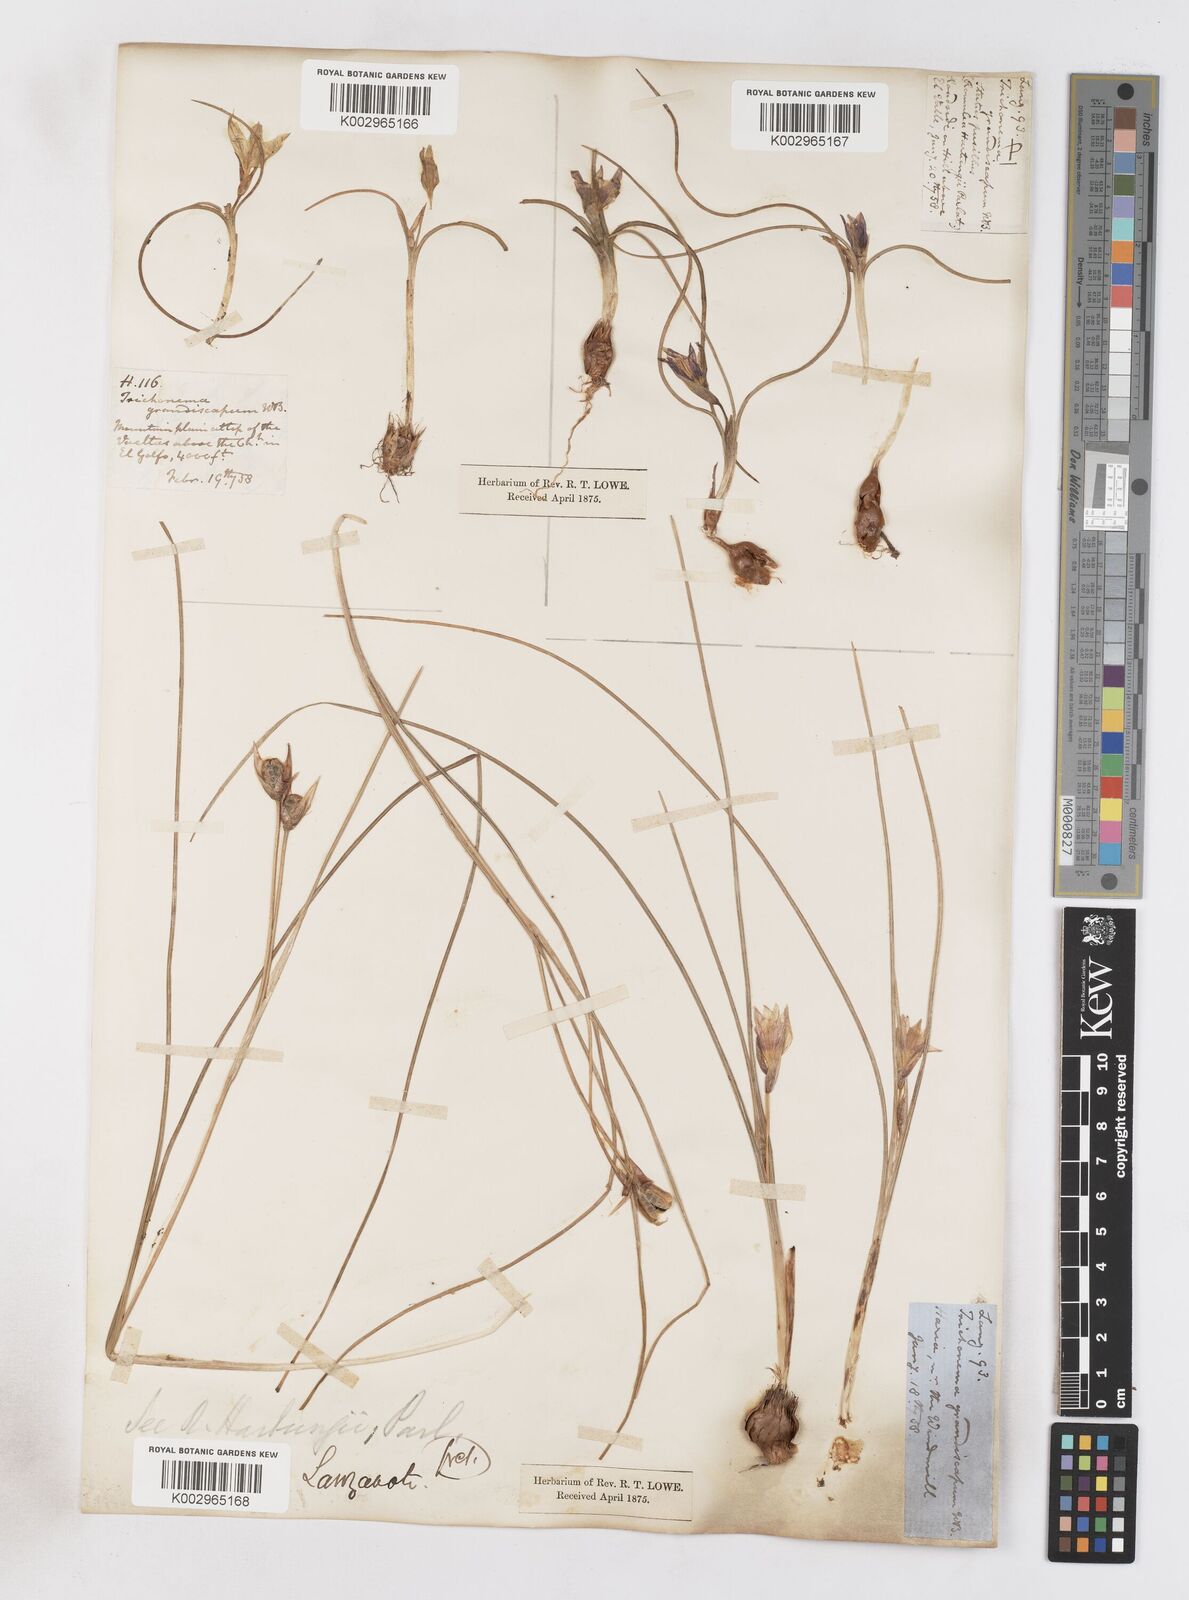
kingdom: Plantae
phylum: Tracheophyta
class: Liliopsida
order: Asparagales
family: Iridaceae
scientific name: Iridaceae
